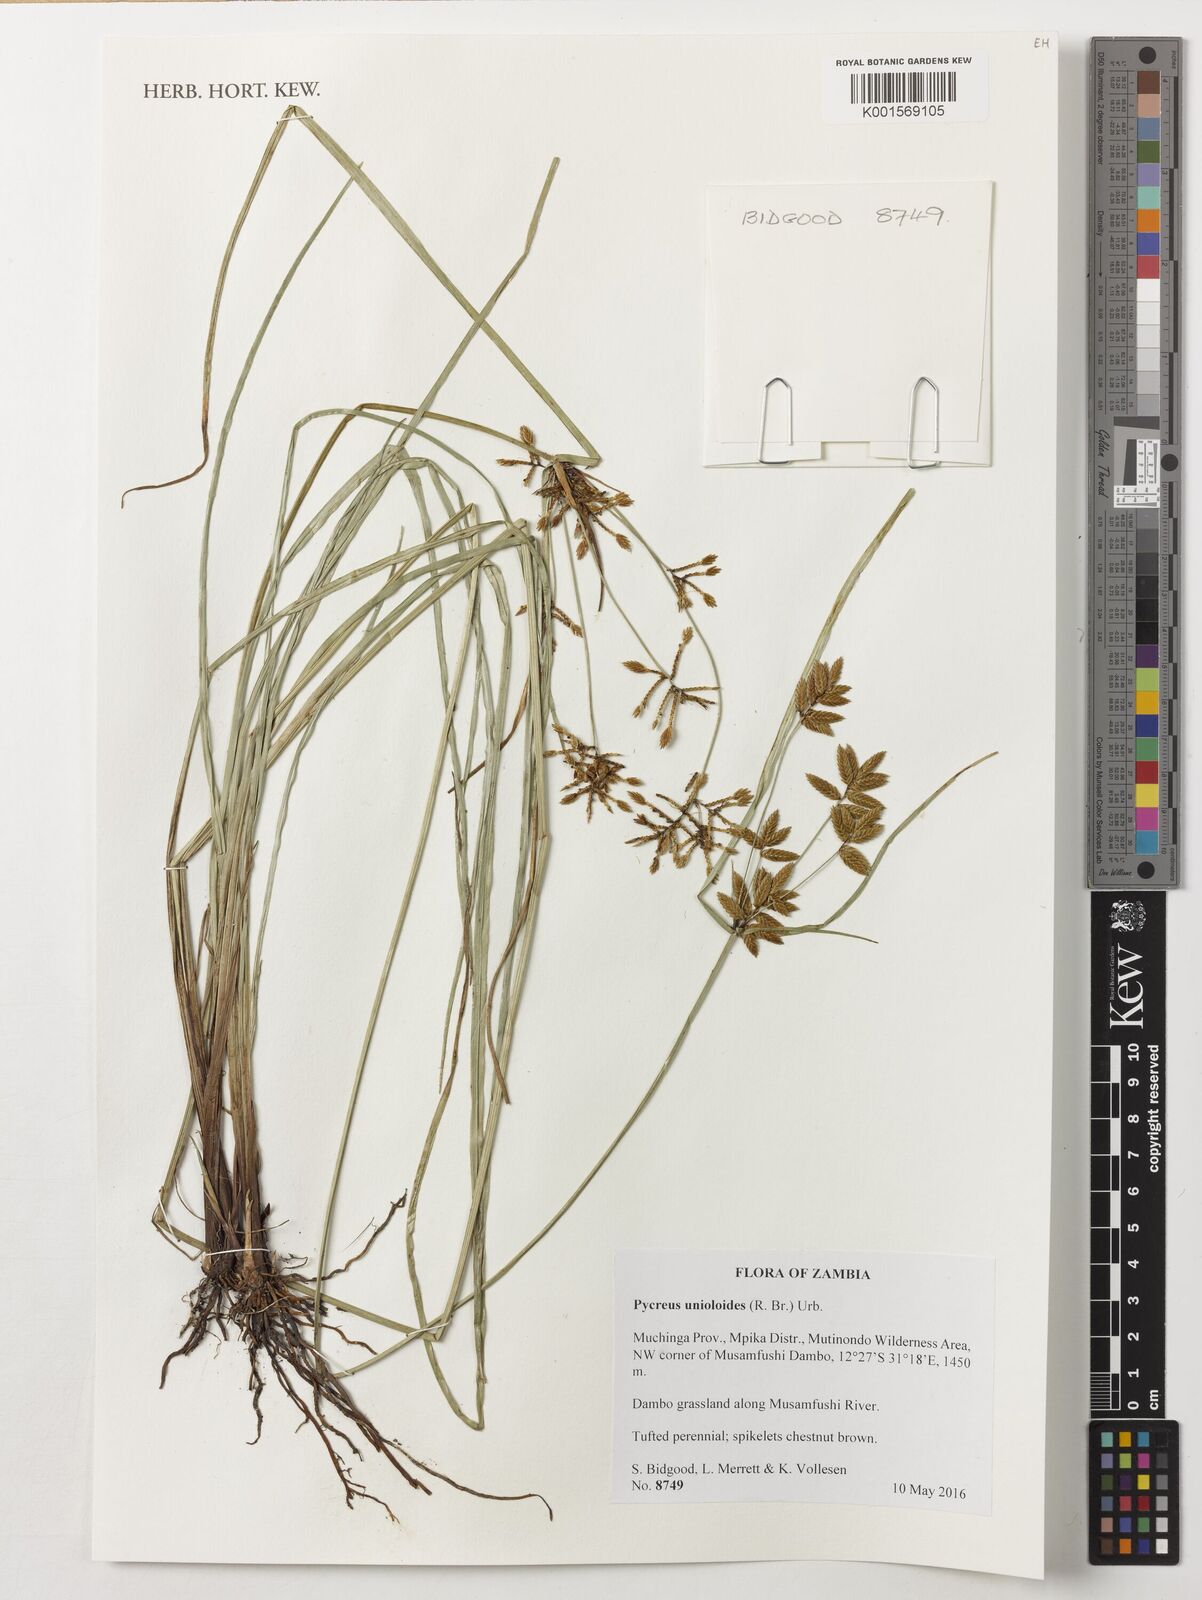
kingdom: Plantae
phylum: Tracheophyta
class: Liliopsida
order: Poales
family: Cyperaceae
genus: Cyperus
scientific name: Cyperus unioloides
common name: Uniola flatsedge
